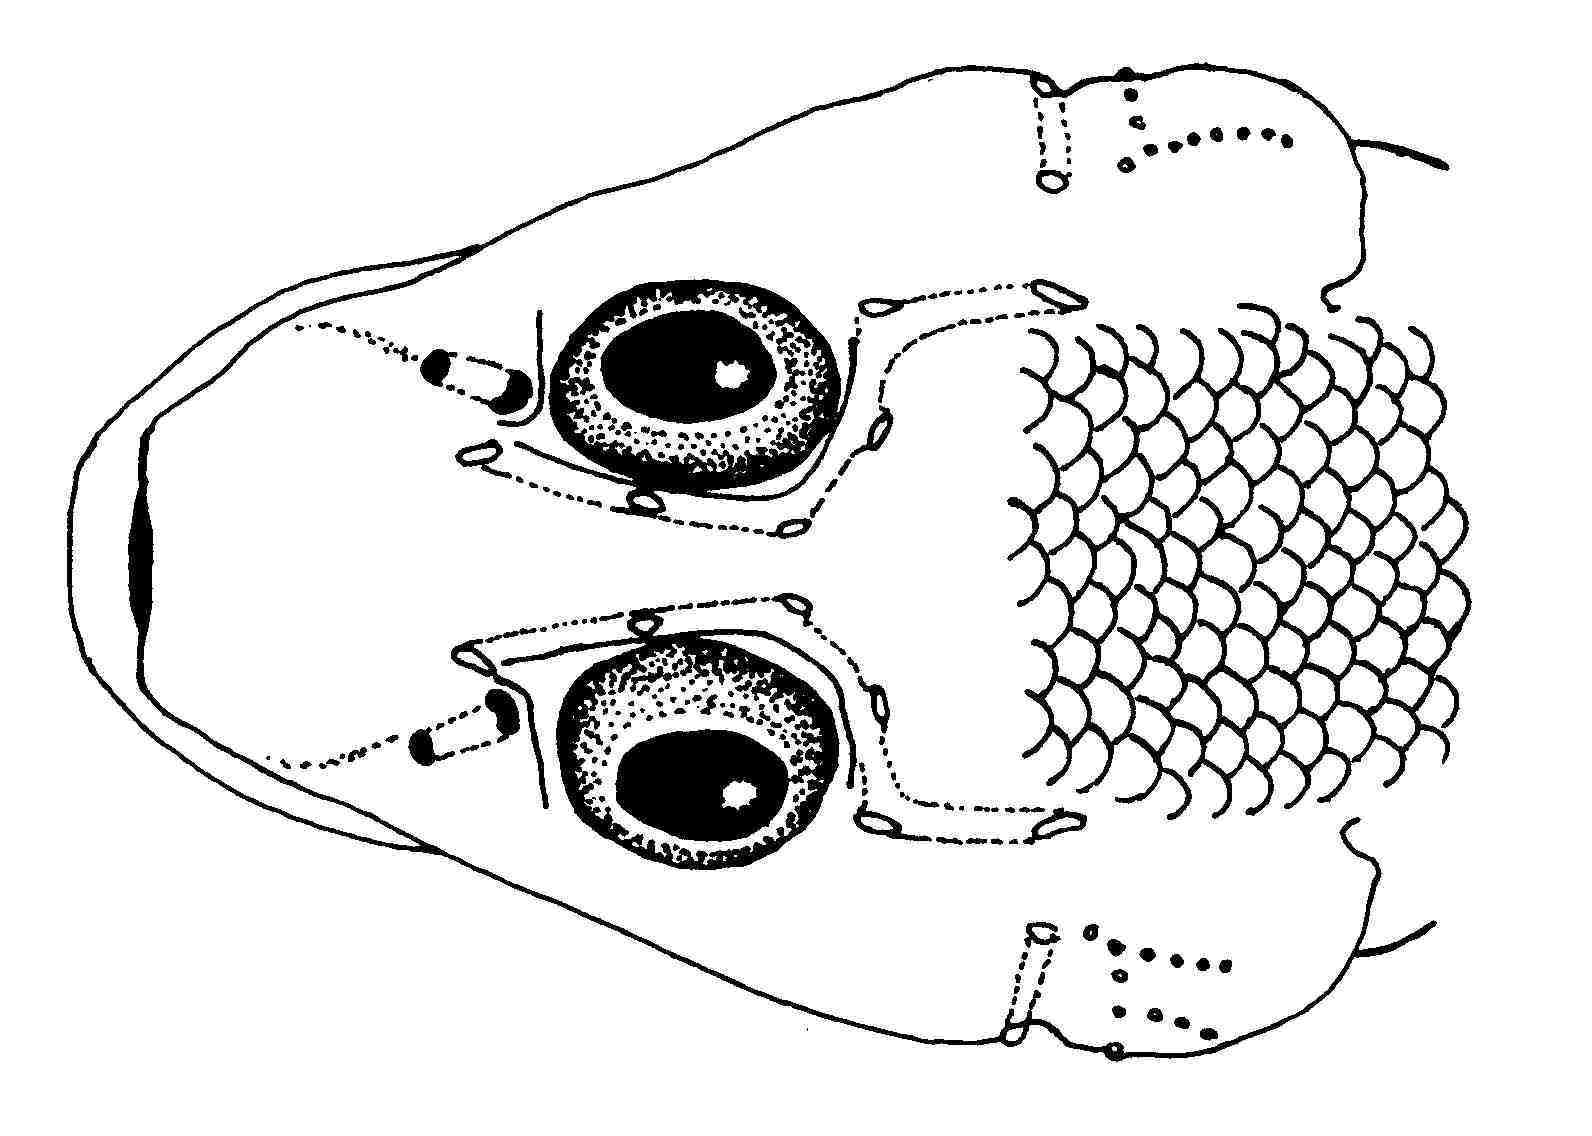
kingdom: Animalia
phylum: Chordata
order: Perciformes
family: Gobiidae
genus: Phyllogobius
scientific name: Phyllogobius platycephalops
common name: Flathead sponge-goby
